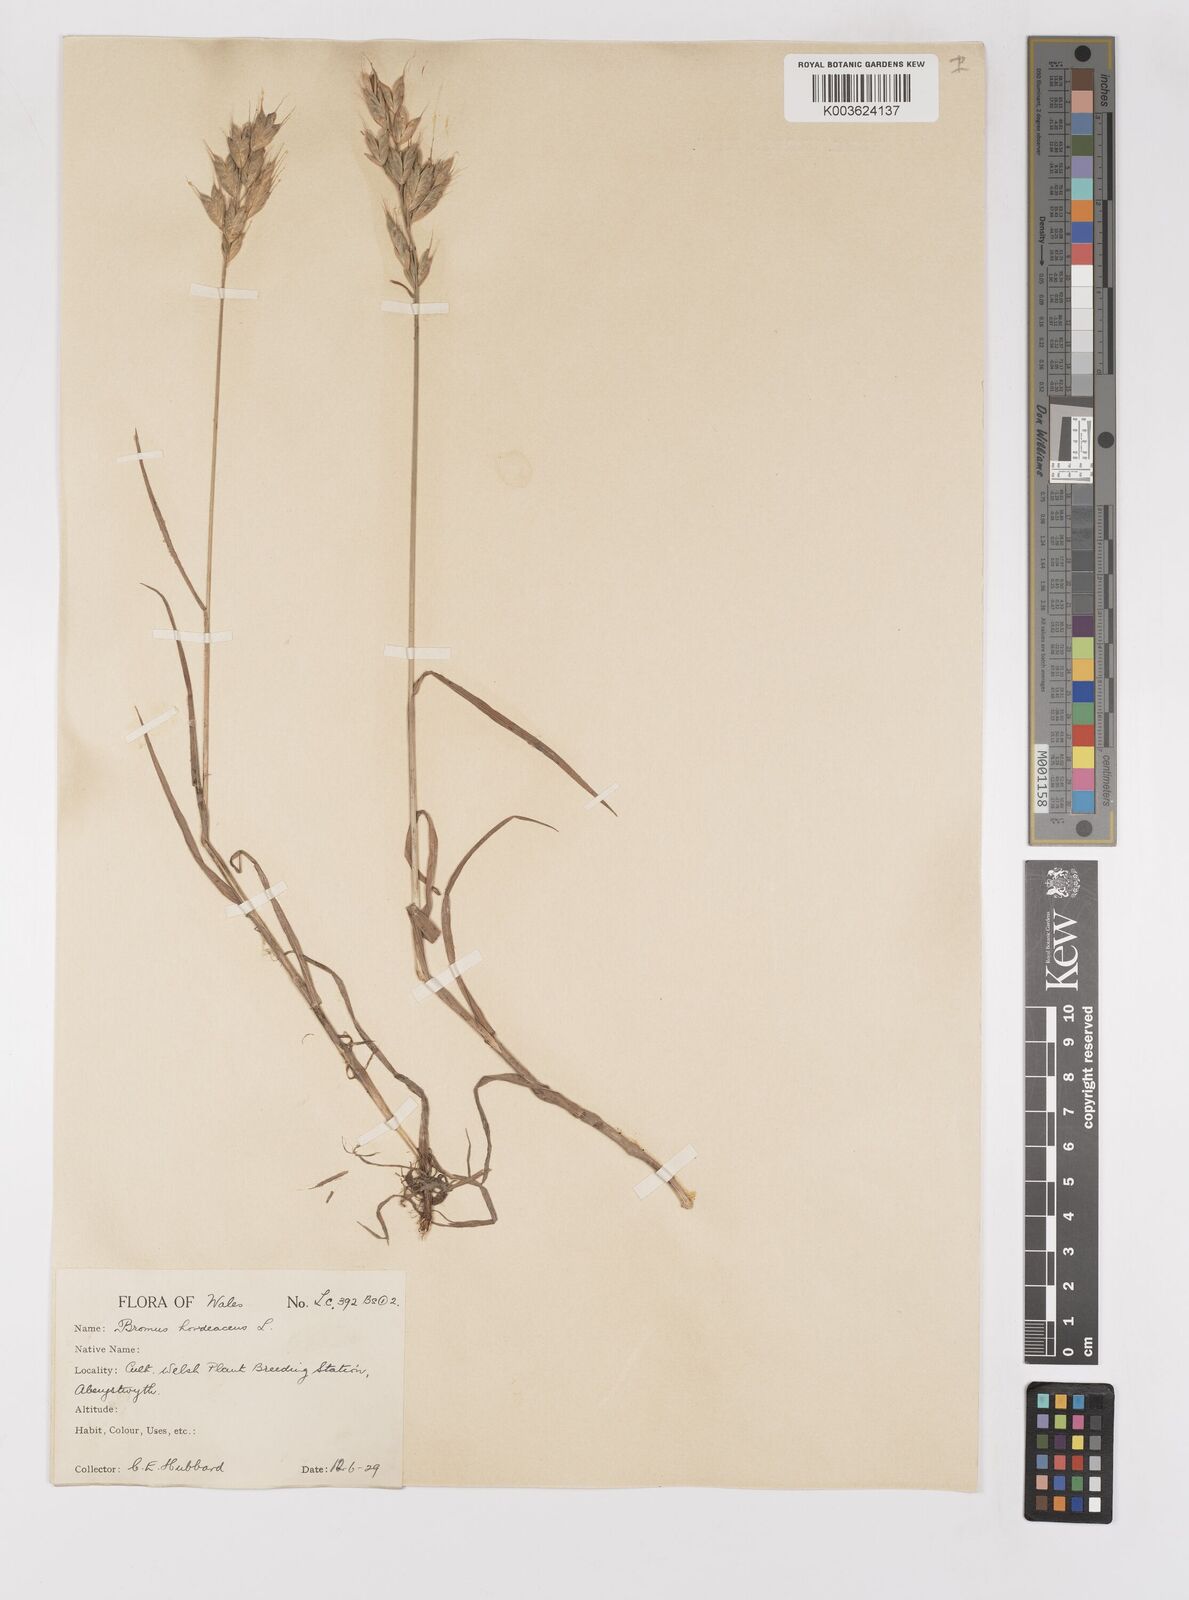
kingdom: Plantae
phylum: Tracheophyta
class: Liliopsida
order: Poales
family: Poaceae
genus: Bromus
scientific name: Bromus hordeaceus
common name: Soft brome
